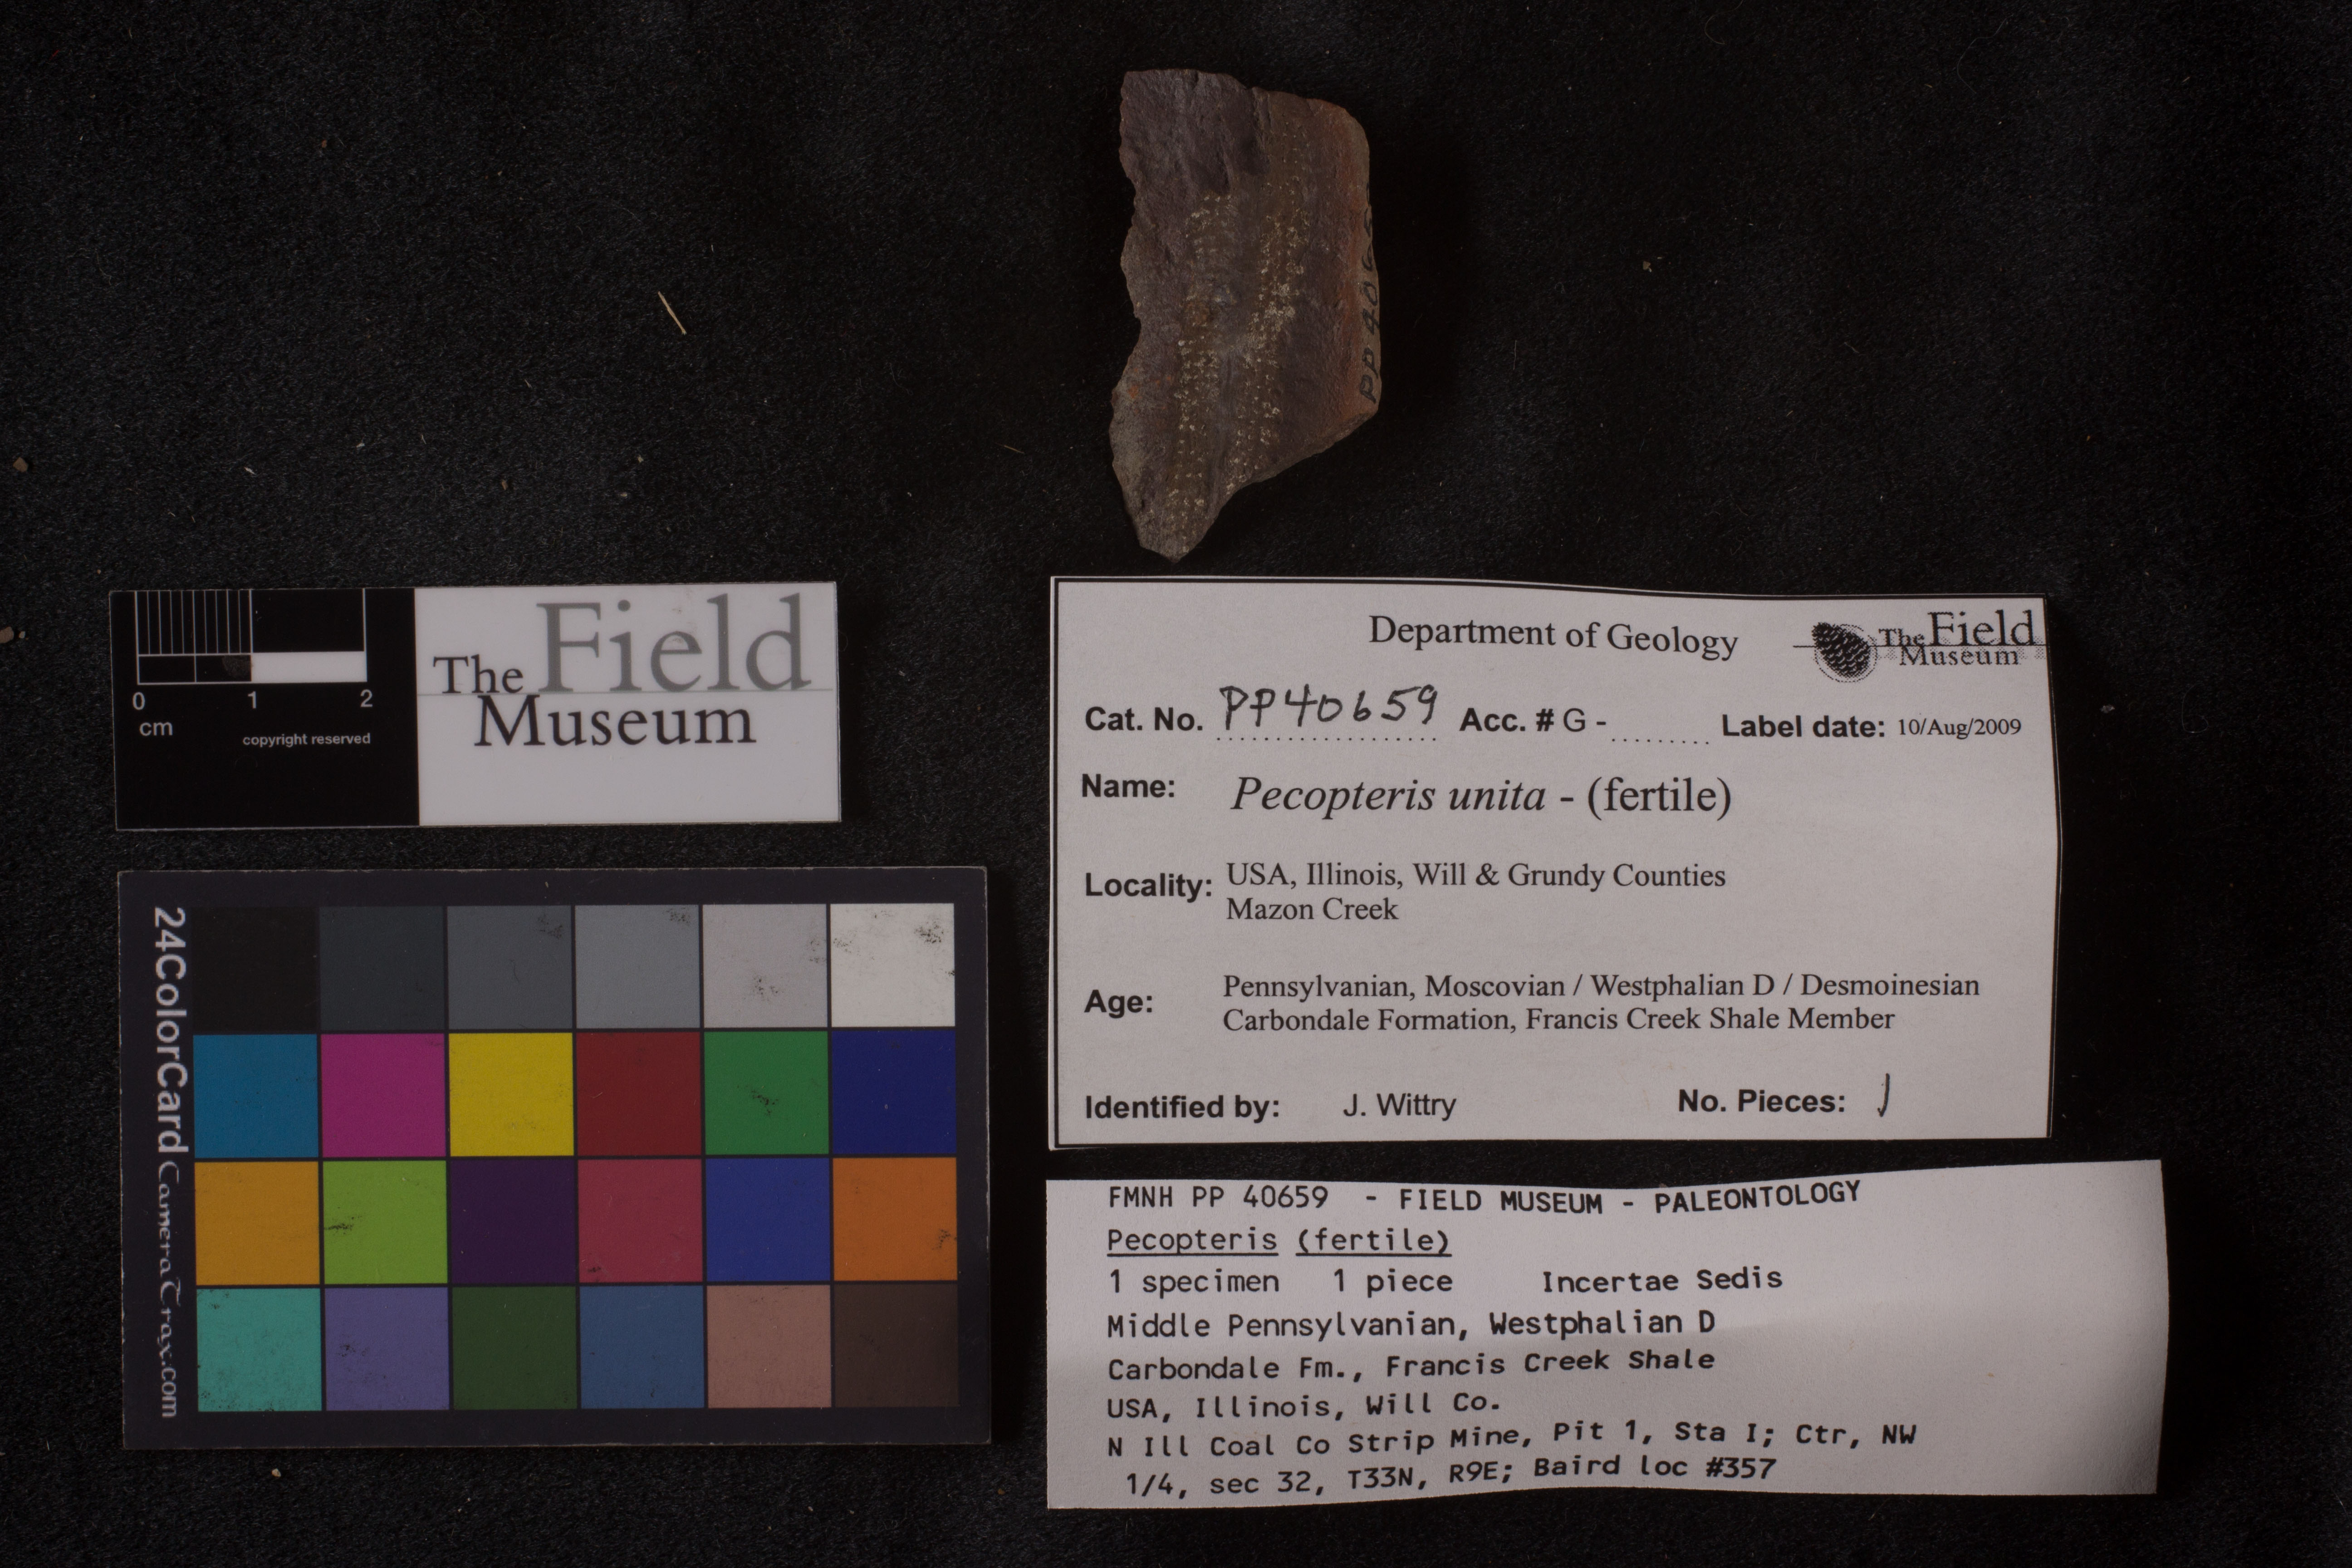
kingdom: Plantae
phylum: Tracheophyta
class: Polypodiopsida
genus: Diplazites
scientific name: Diplazites
